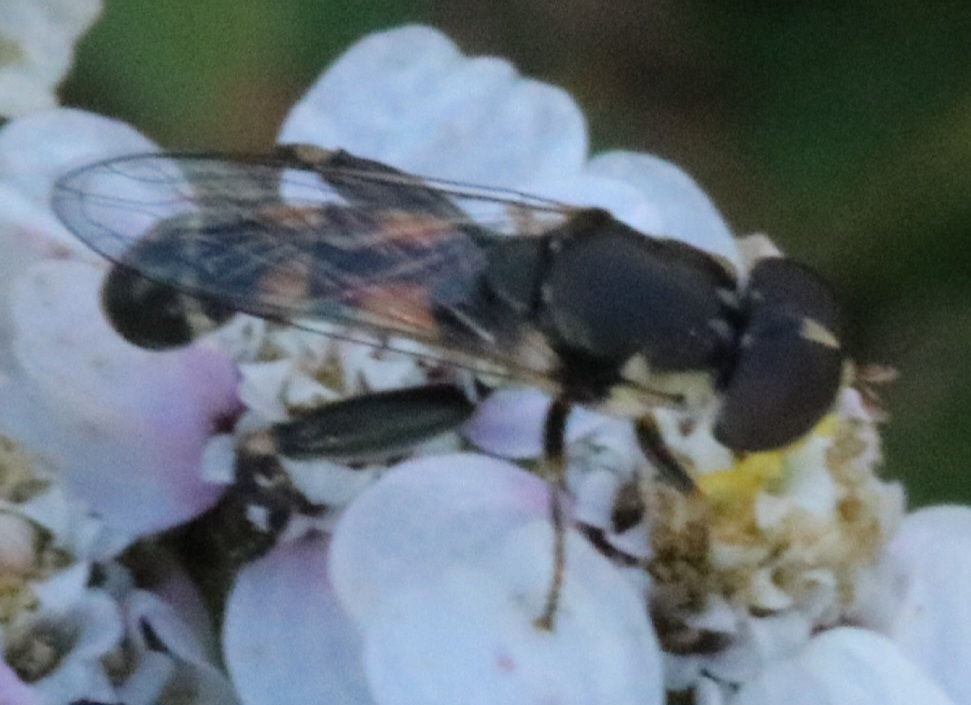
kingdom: Animalia
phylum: Arthropoda
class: Insecta
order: Diptera
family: Syrphidae
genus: Syritta
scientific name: Syritta pipiens
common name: Kompost-svirreflue
